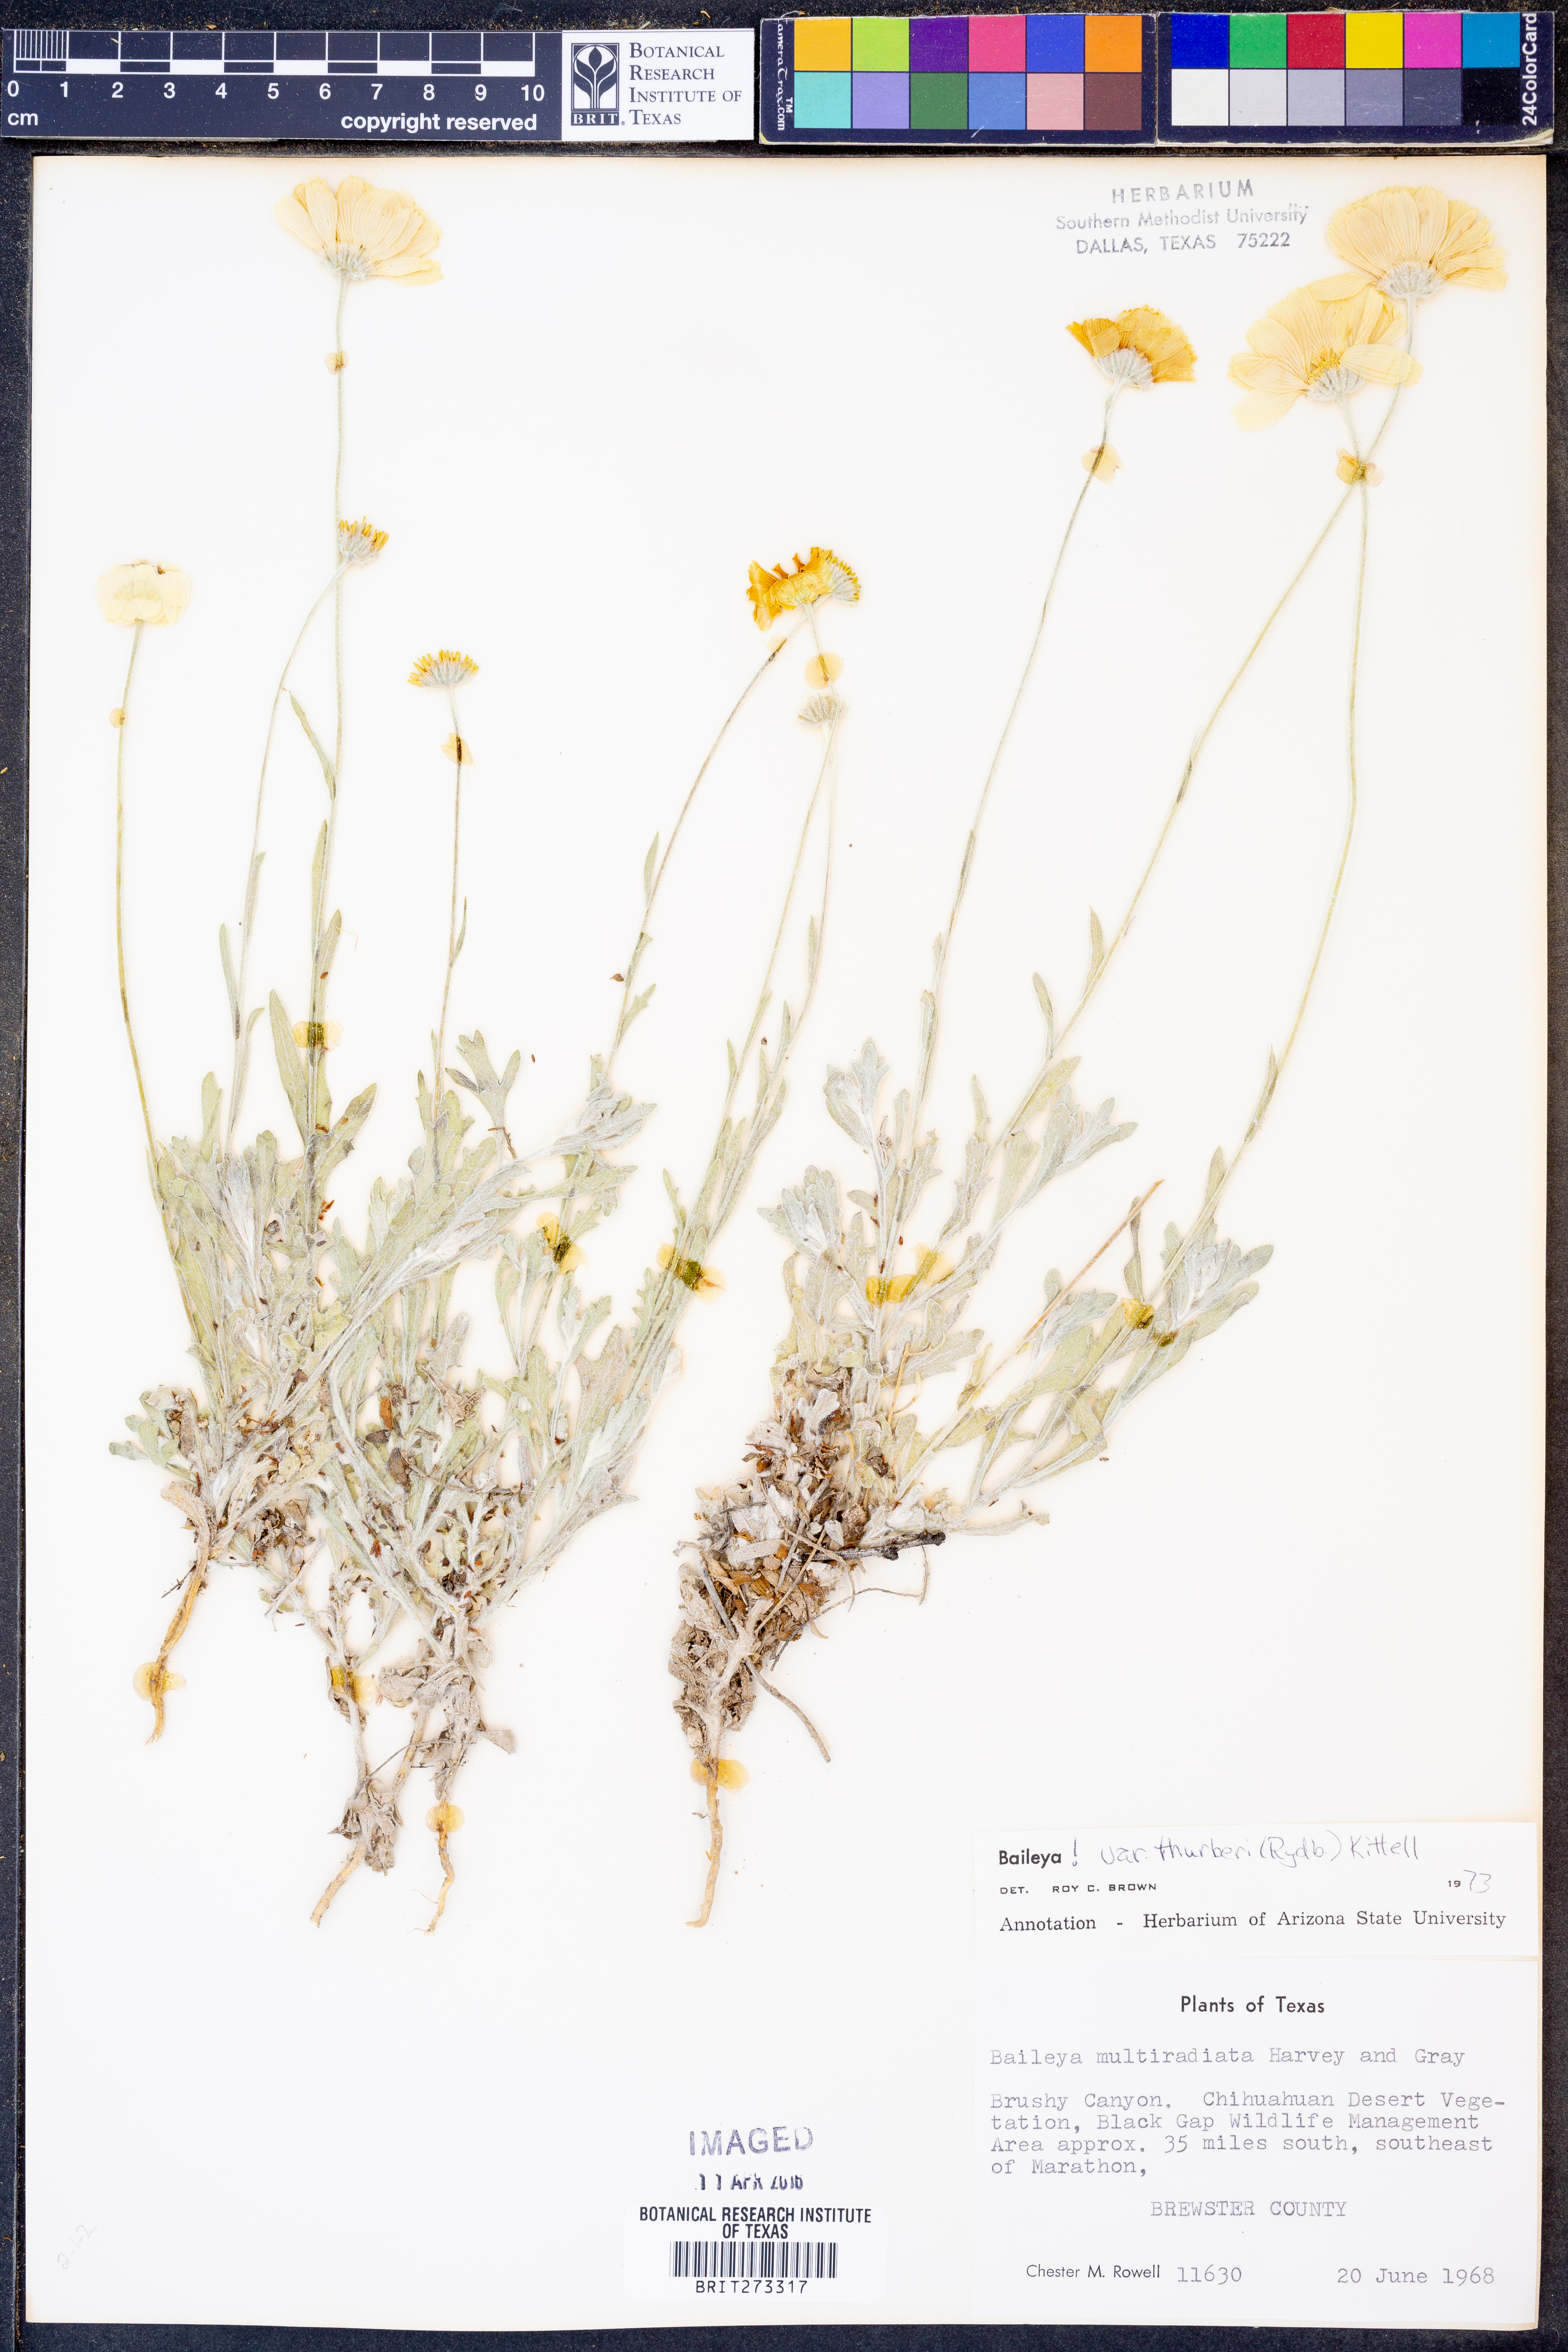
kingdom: Plantae
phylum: Tracheophyta
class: Magnoliopsida
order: Asterales
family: Asteraceae
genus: Baileya
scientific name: Baileya multiradiata
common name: Desert-marigold
